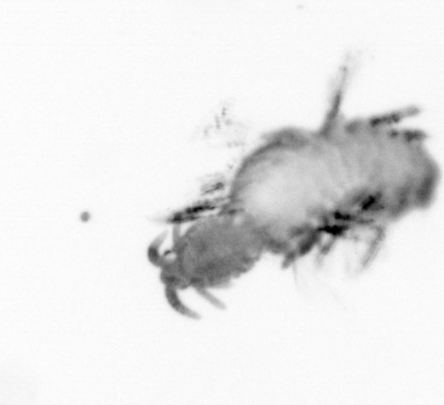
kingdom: Animalia
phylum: Annelida
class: Polychaeta
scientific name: Polychaeta
